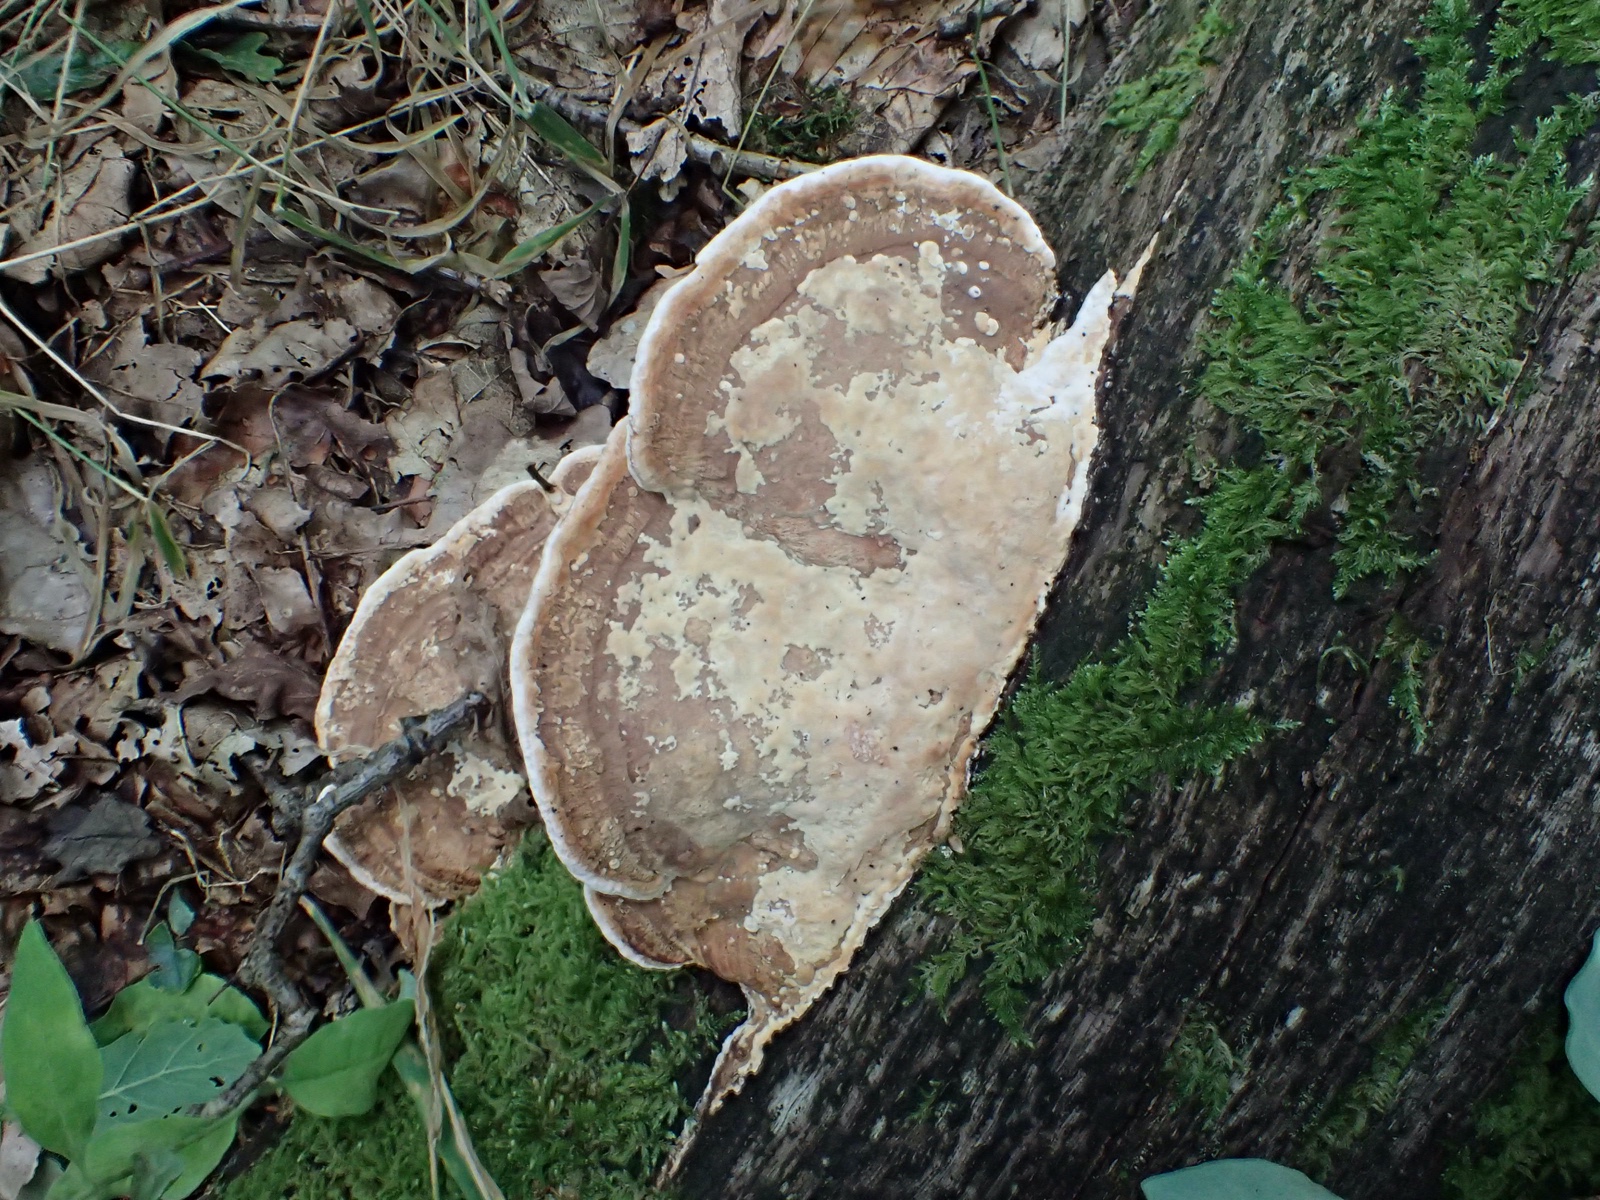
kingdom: Fungi
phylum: Basidiomycota
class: Agaricomycetes
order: Polyporales
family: Fomitopsidaceae
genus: Daedalea
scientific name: Daedalea quercina
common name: ege-labyrintsvamp
